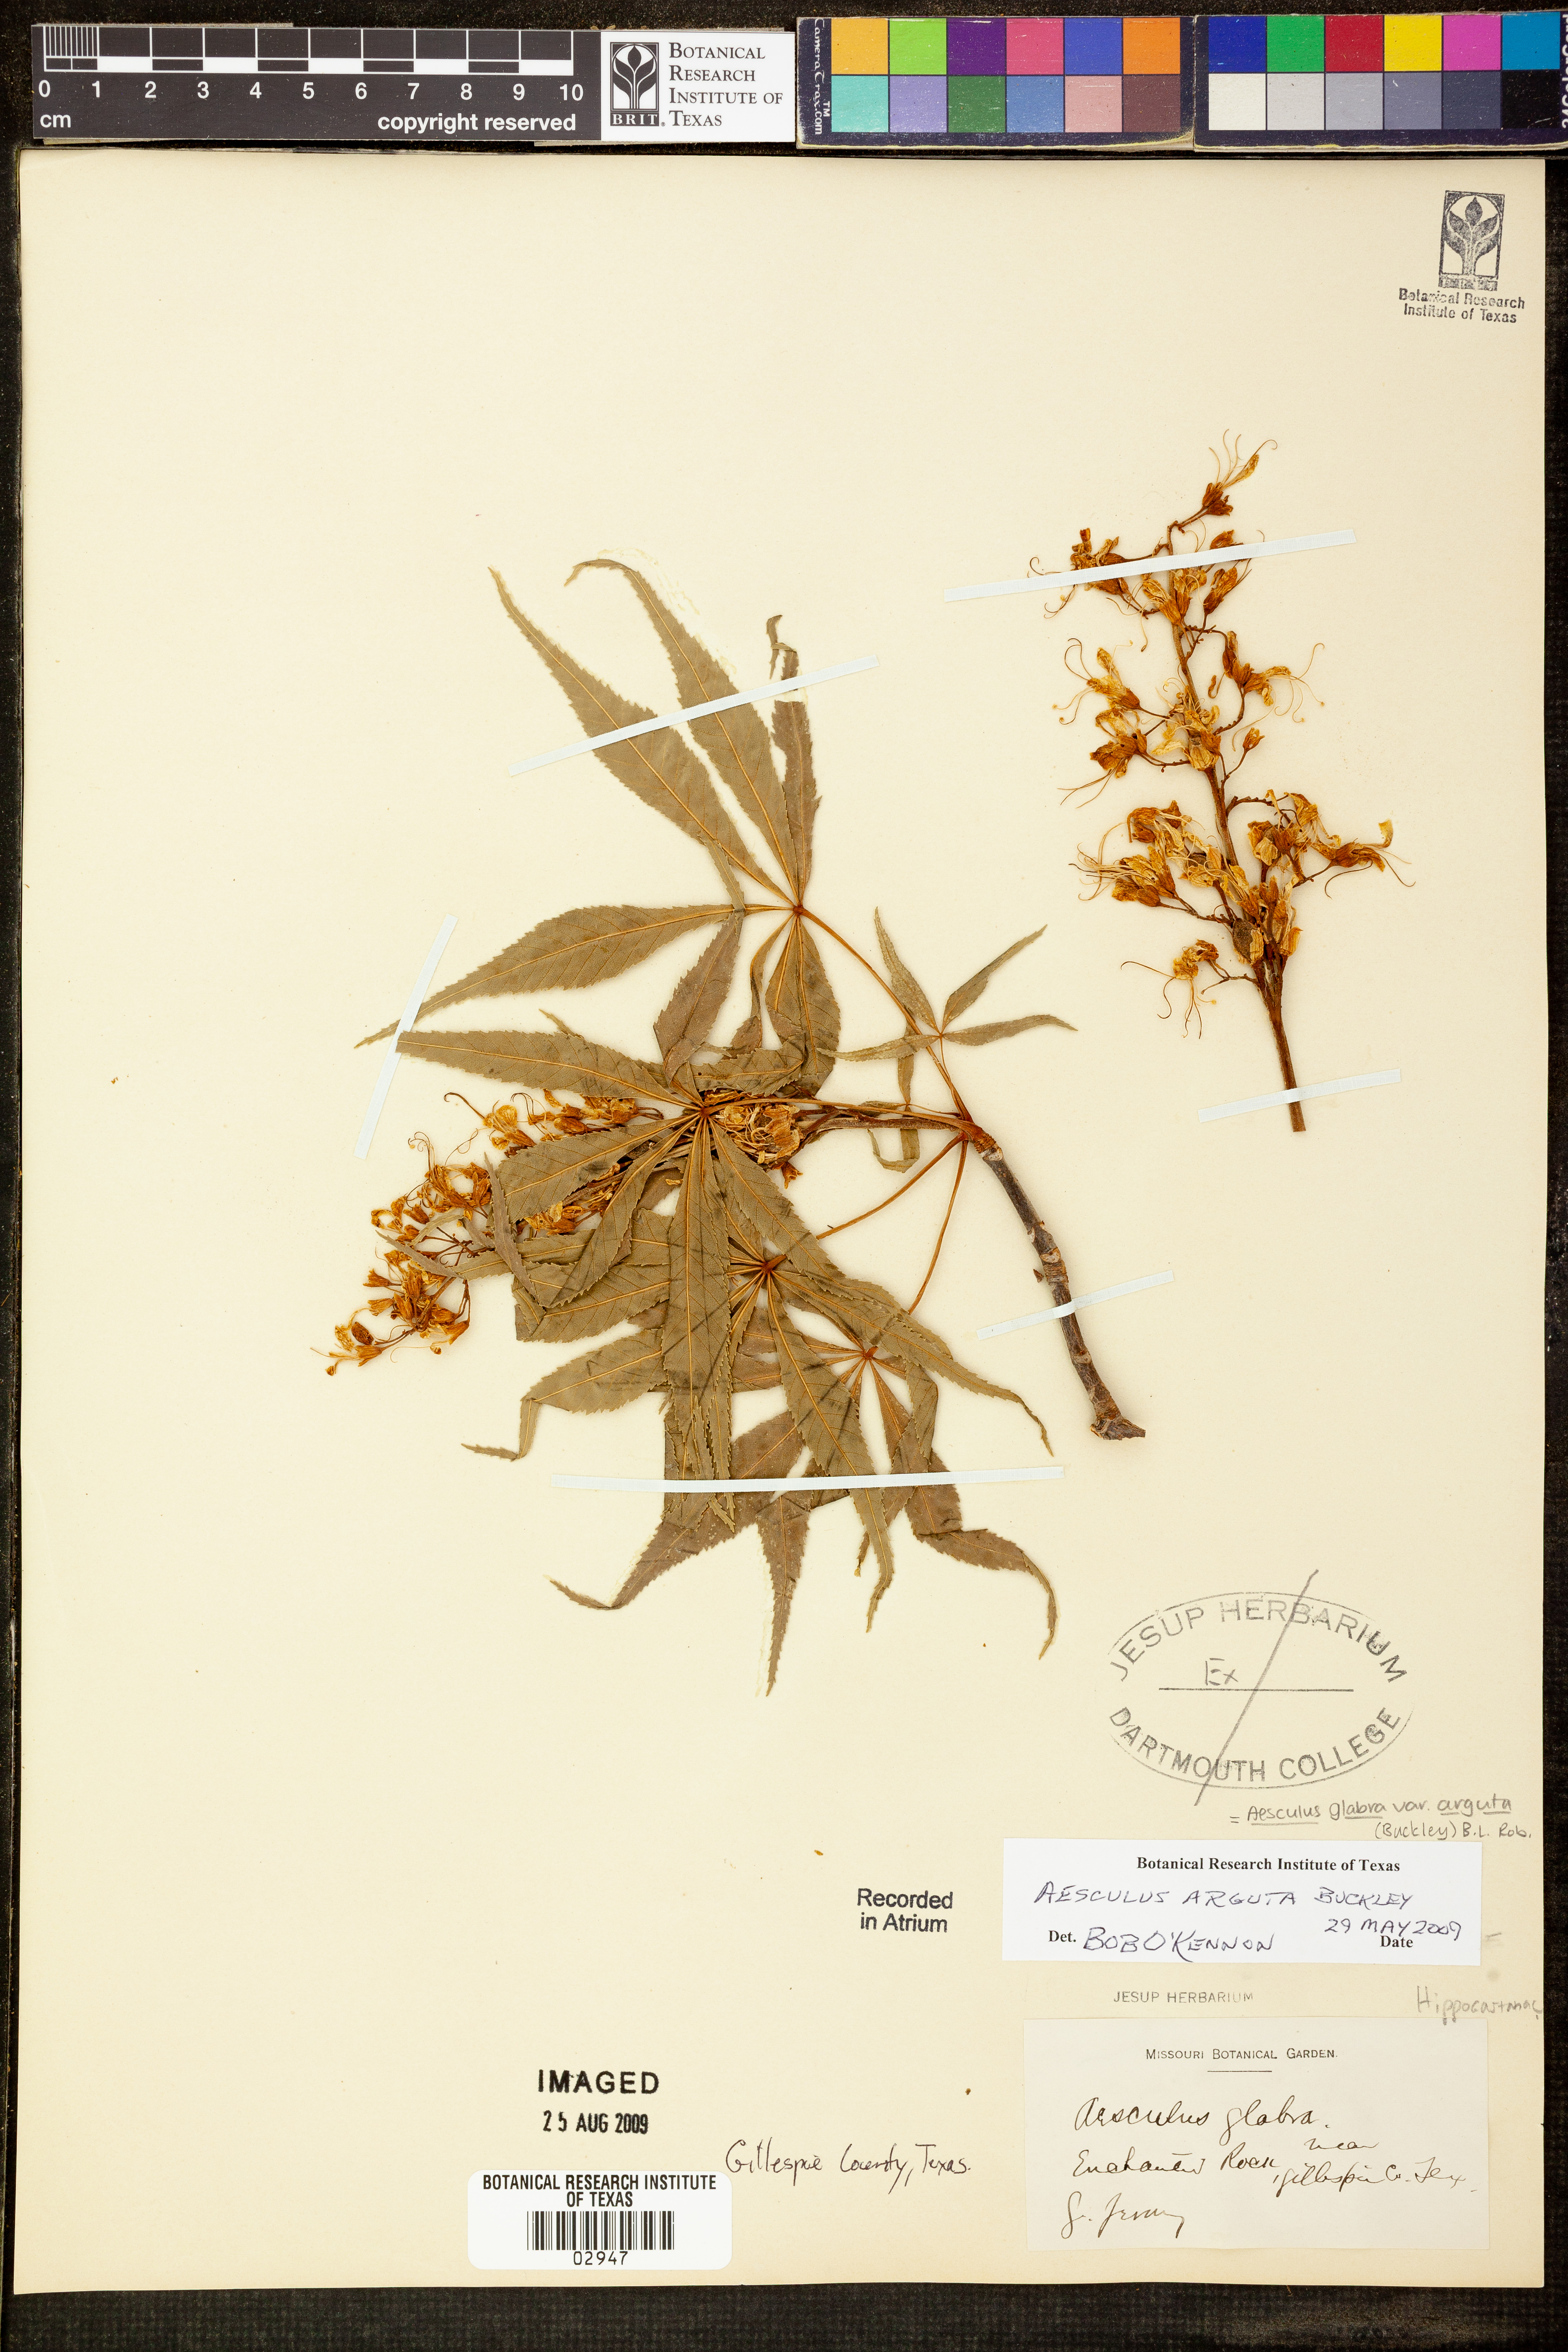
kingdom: Plantae
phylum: Tracheophyta
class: Magnoliopsida
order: Sapindales
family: Sapindaceae
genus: Aesculus
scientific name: Aesculus glabra
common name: Ohio buckeye
